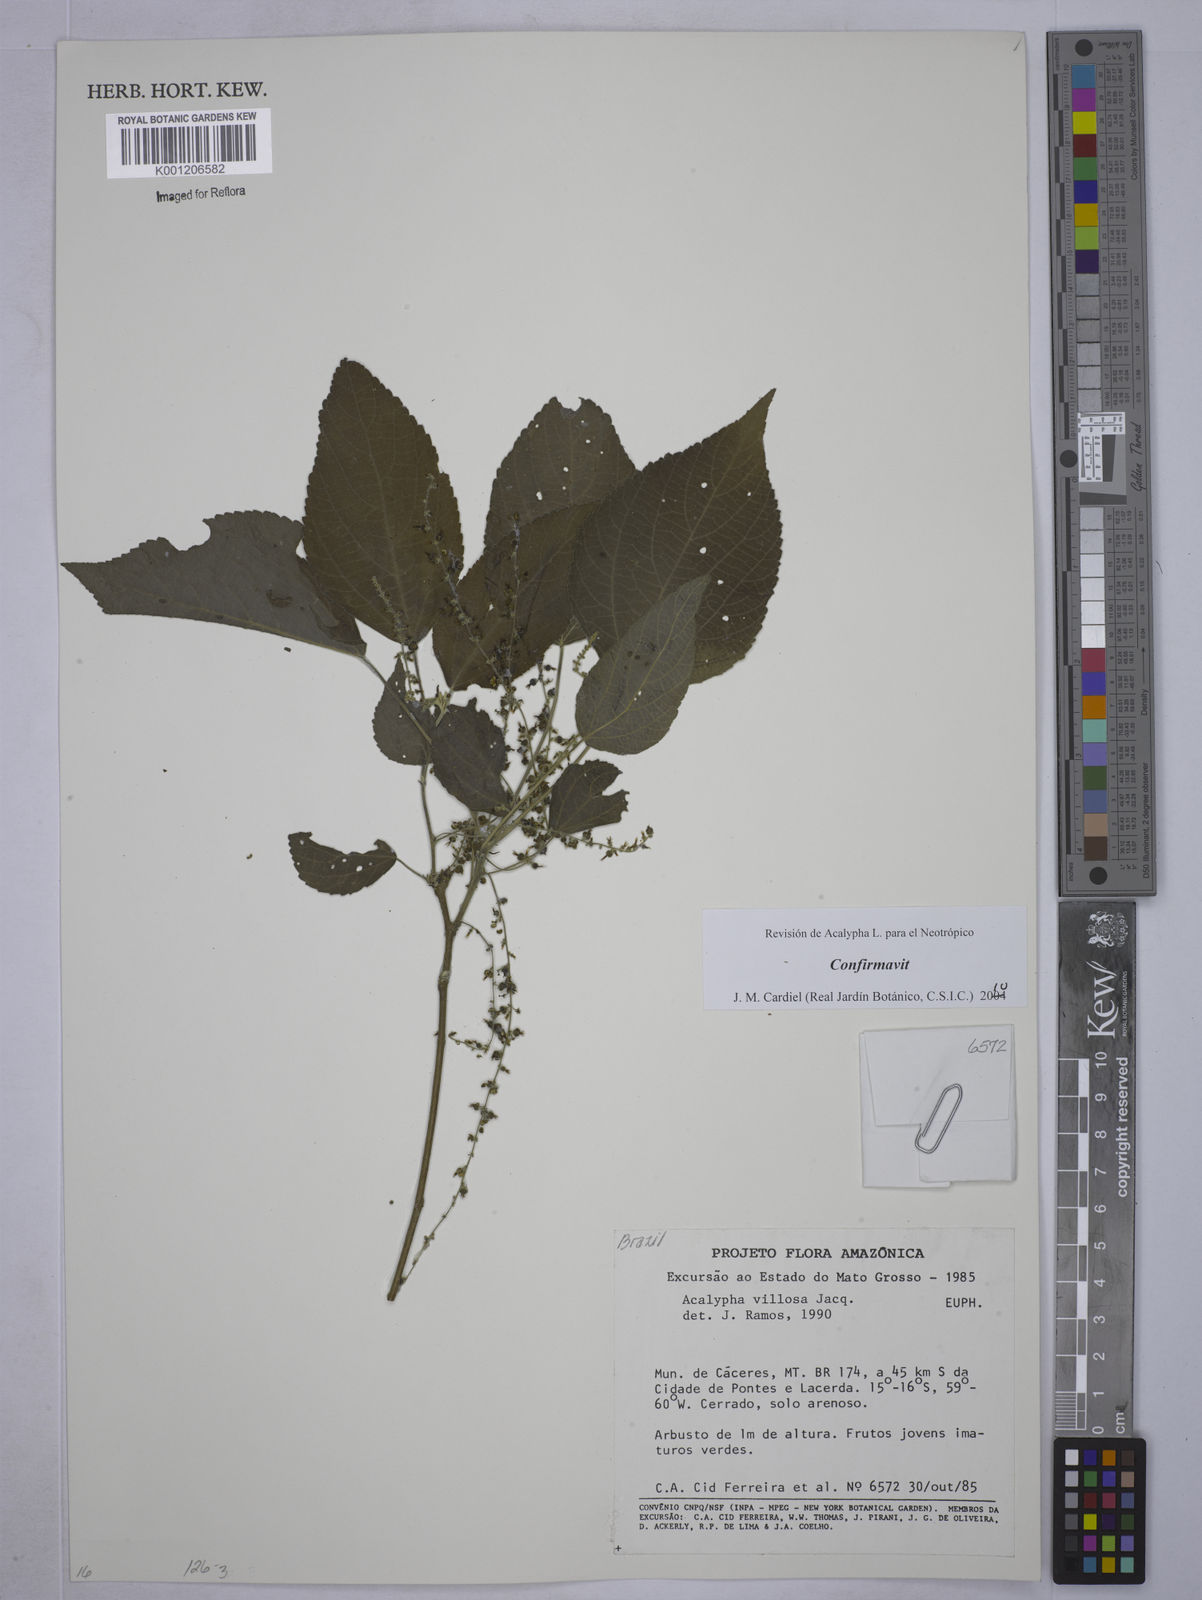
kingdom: Plantae
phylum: Tracheophyta
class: Magnoliopsida
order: Malpighiales
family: Euphorbiaceae
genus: Acalypha
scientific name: Acalypha villosa
